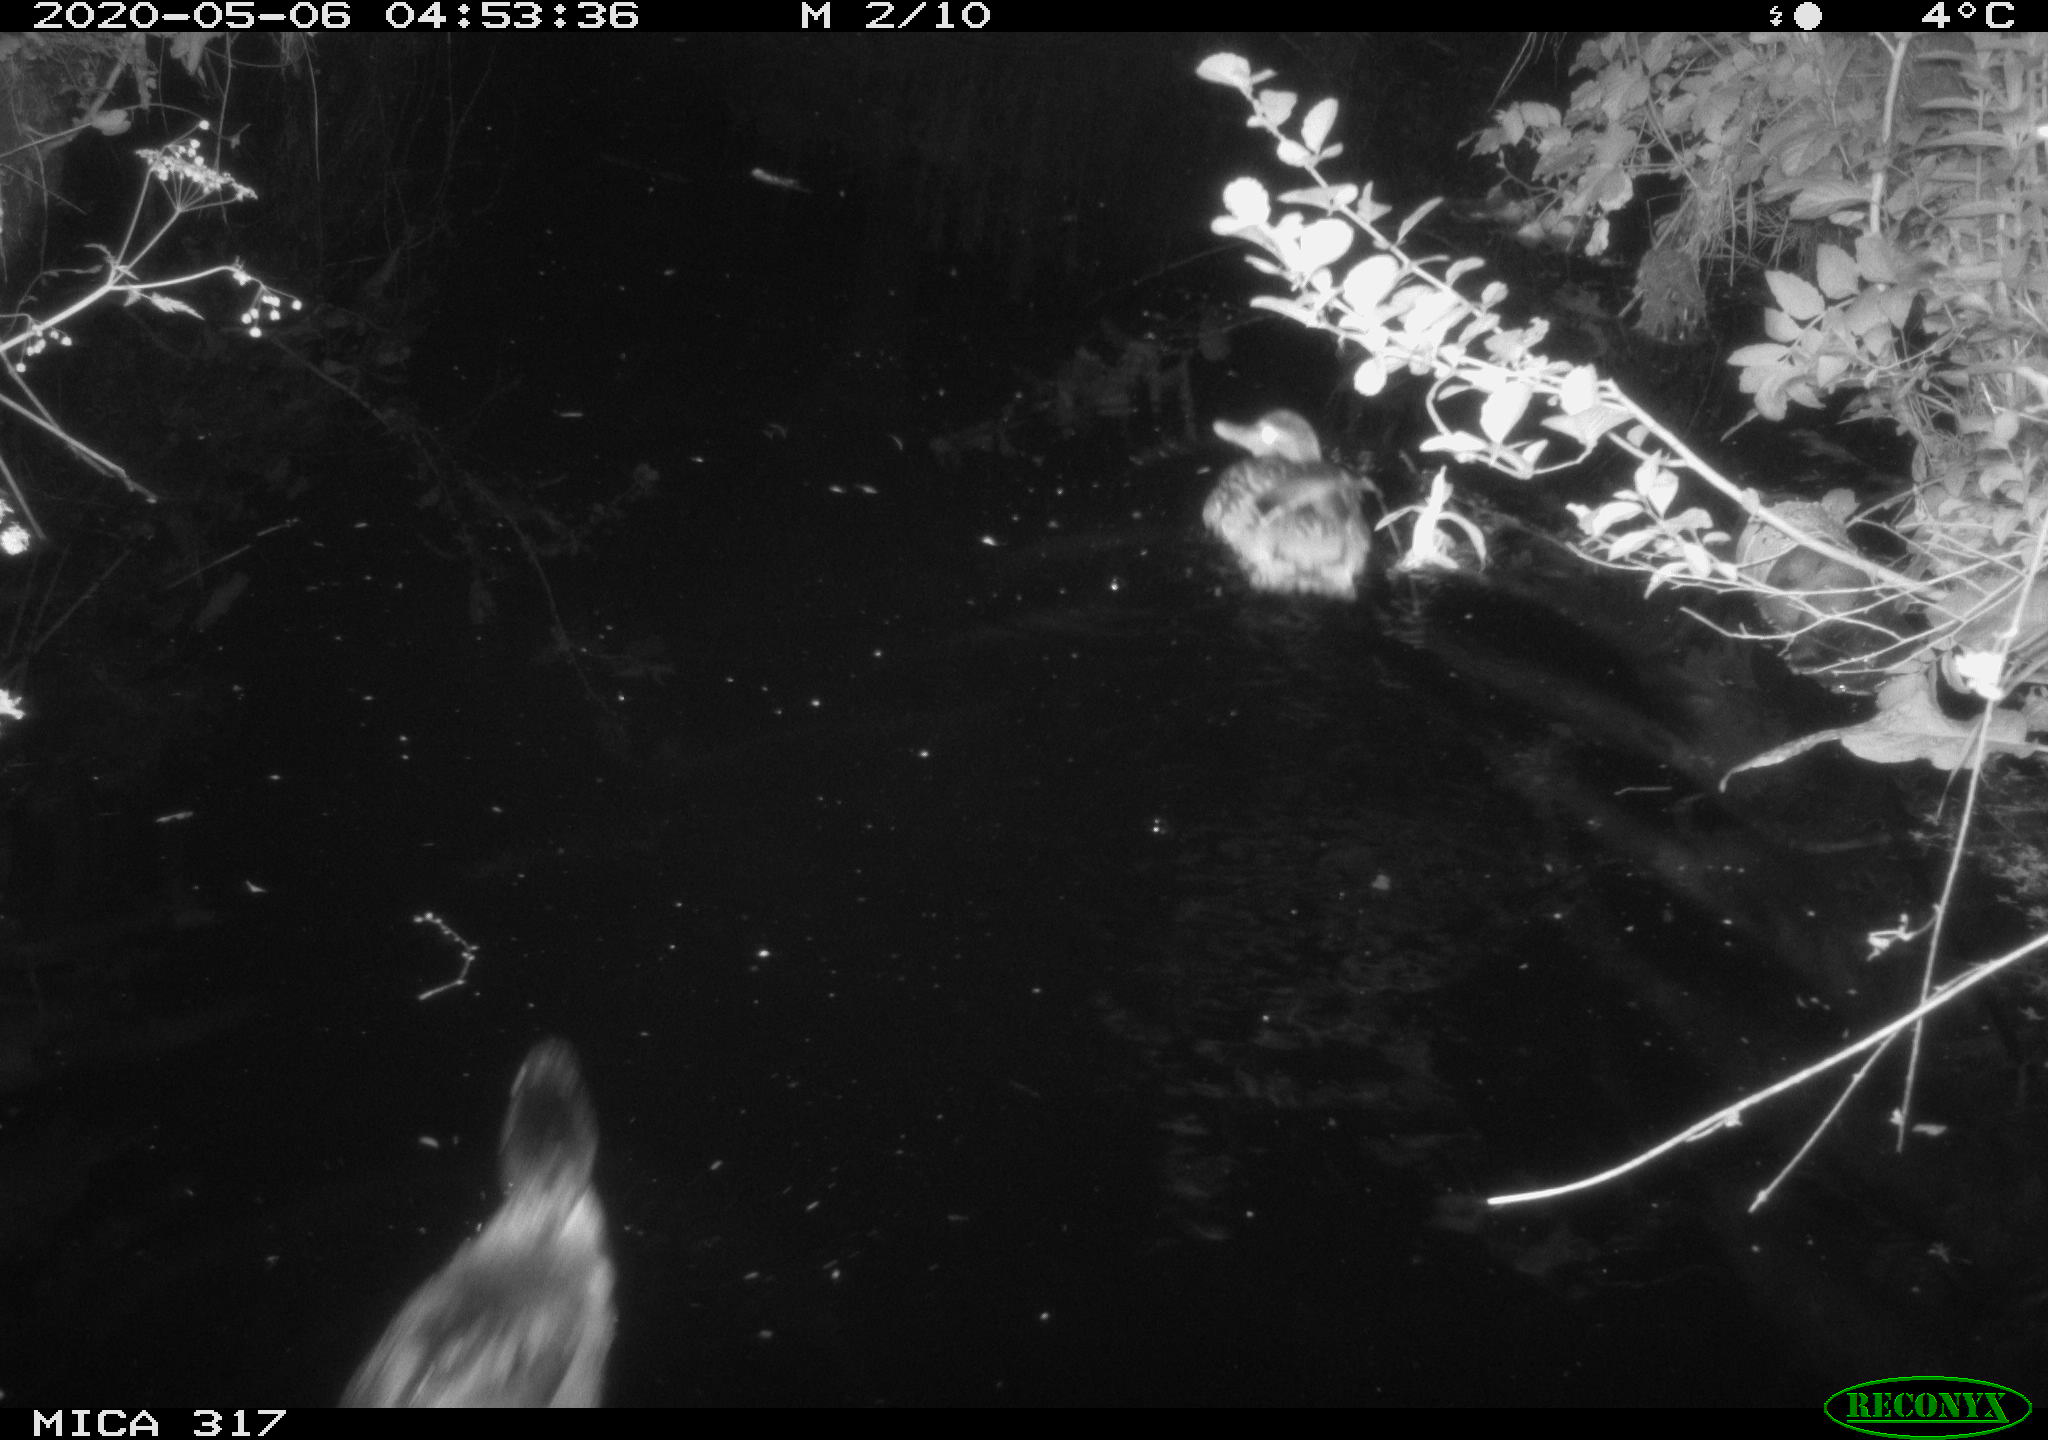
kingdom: Animalia
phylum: Chordata
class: Aves
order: Anseriformes
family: Anatidae
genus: Anas
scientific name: Anas platyrhynchos
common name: Mallard
